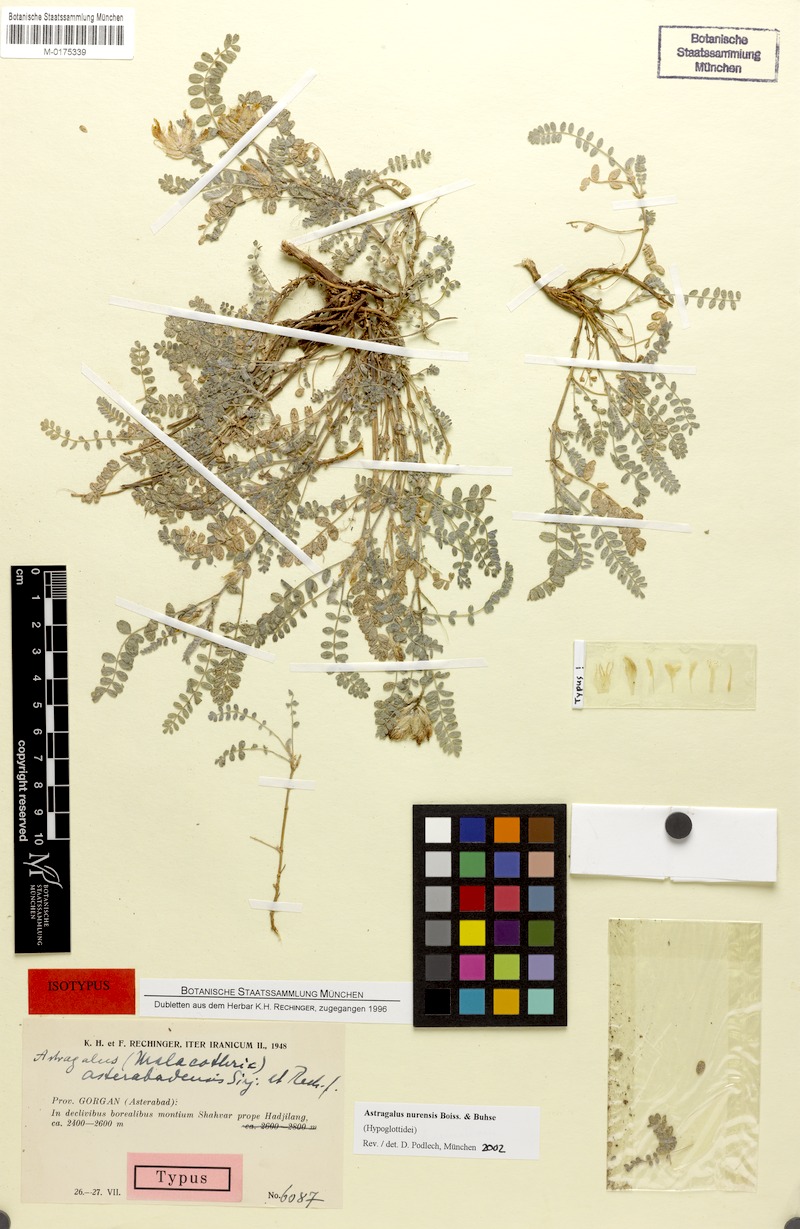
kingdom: Plantae
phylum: Tracheophyta
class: Magnoliopsida
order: Fabales
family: Fabaceae
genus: Astragalus
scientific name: Astragalus nurensis
